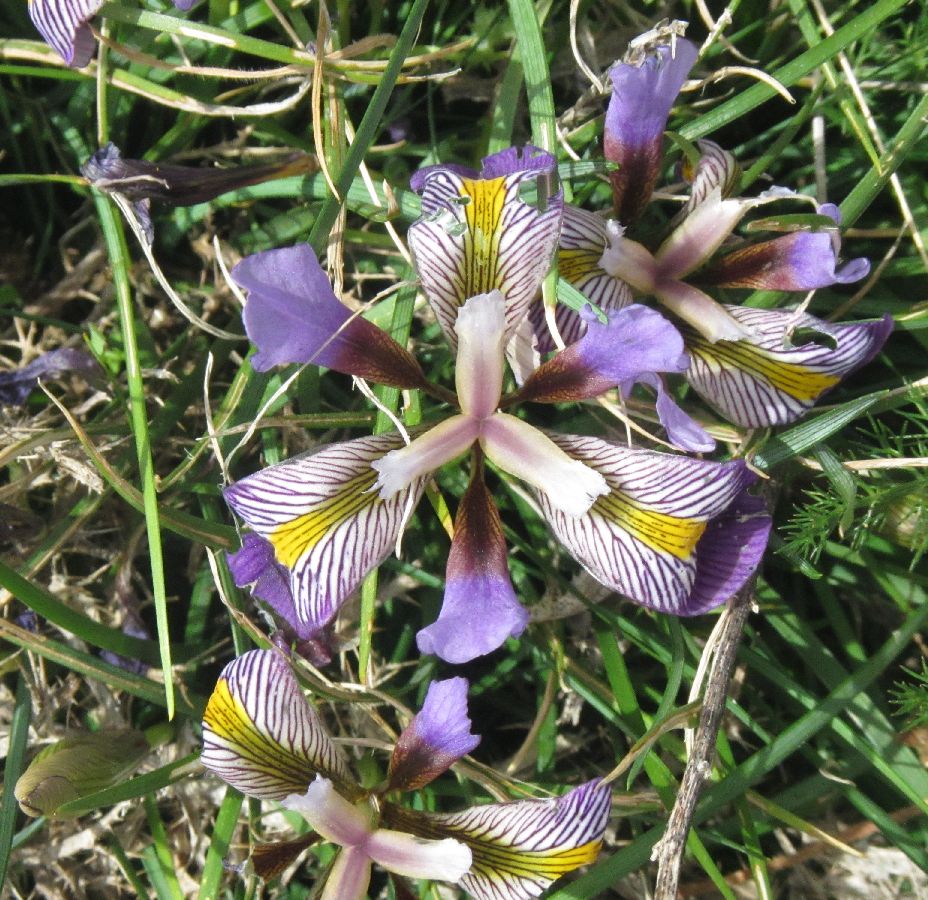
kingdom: Plantae
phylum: Tracheophyta
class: Liliopsida
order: Asparagales
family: Iridaceae
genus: Iris
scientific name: Iris unguicularis
